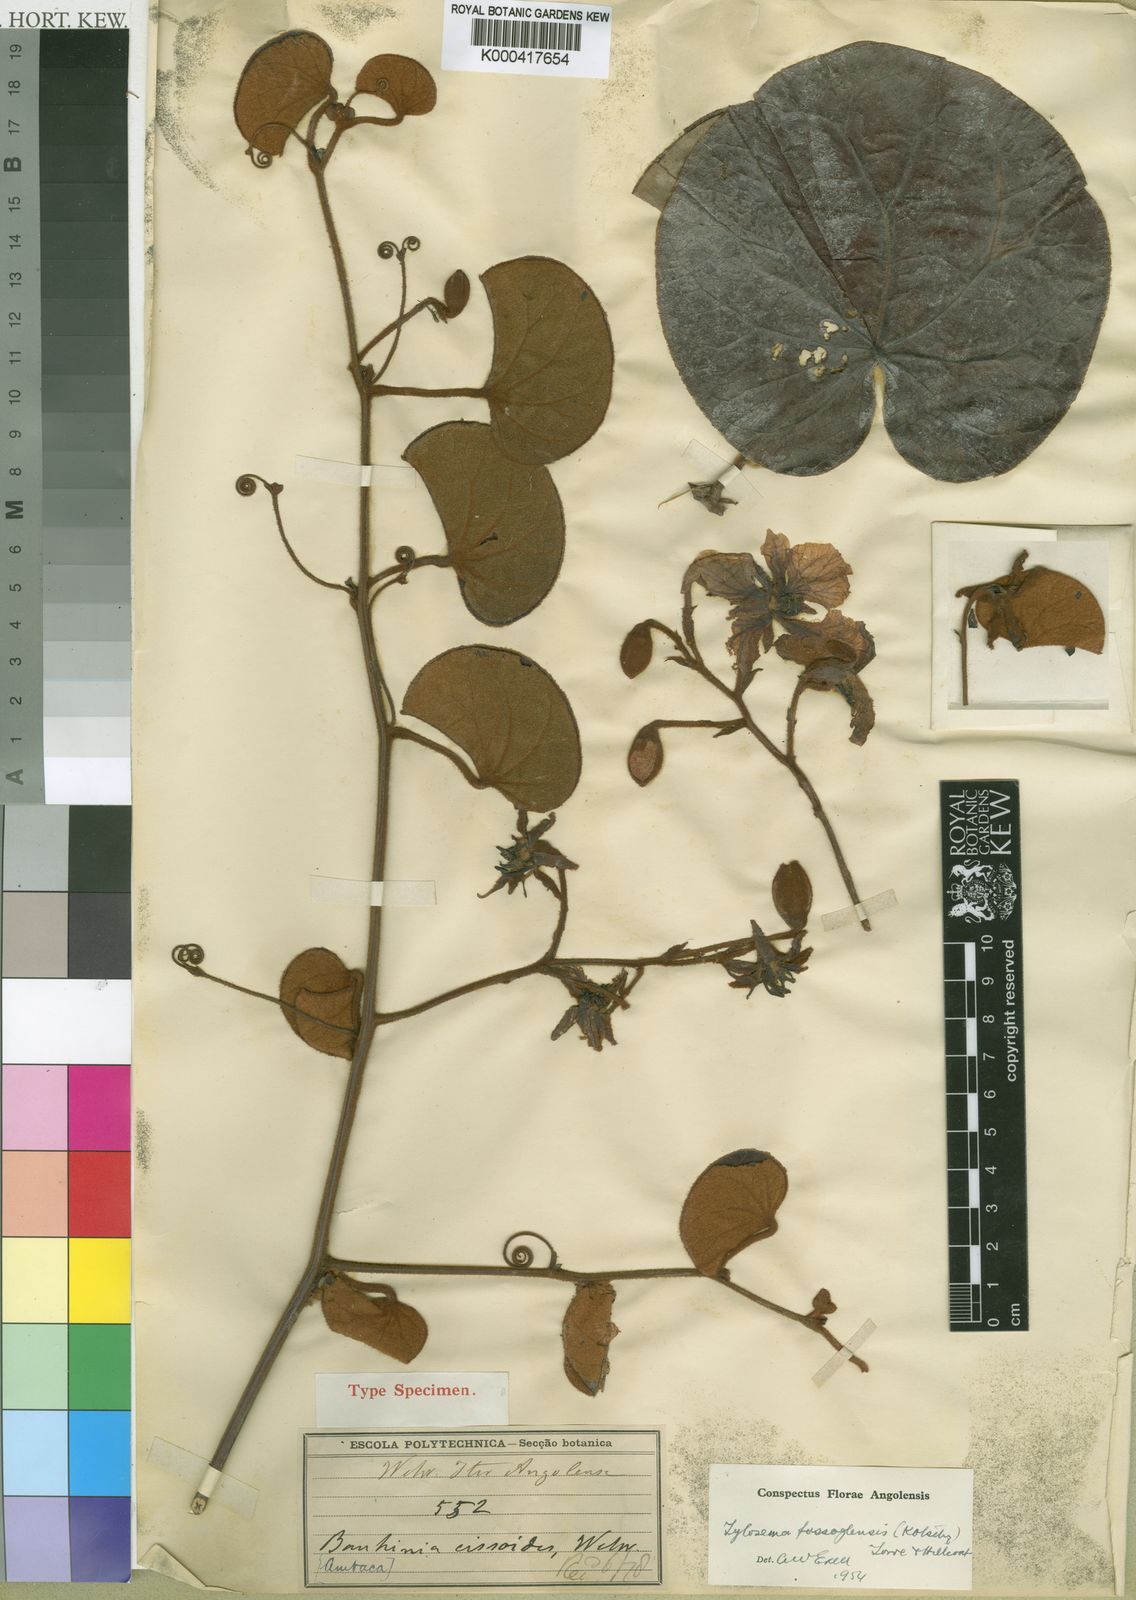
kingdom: Plantae
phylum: Tracheophyta
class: Magnoliopsida
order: Fabales
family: Fabaceae
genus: Tylosema
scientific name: Tylosema fassoglense
